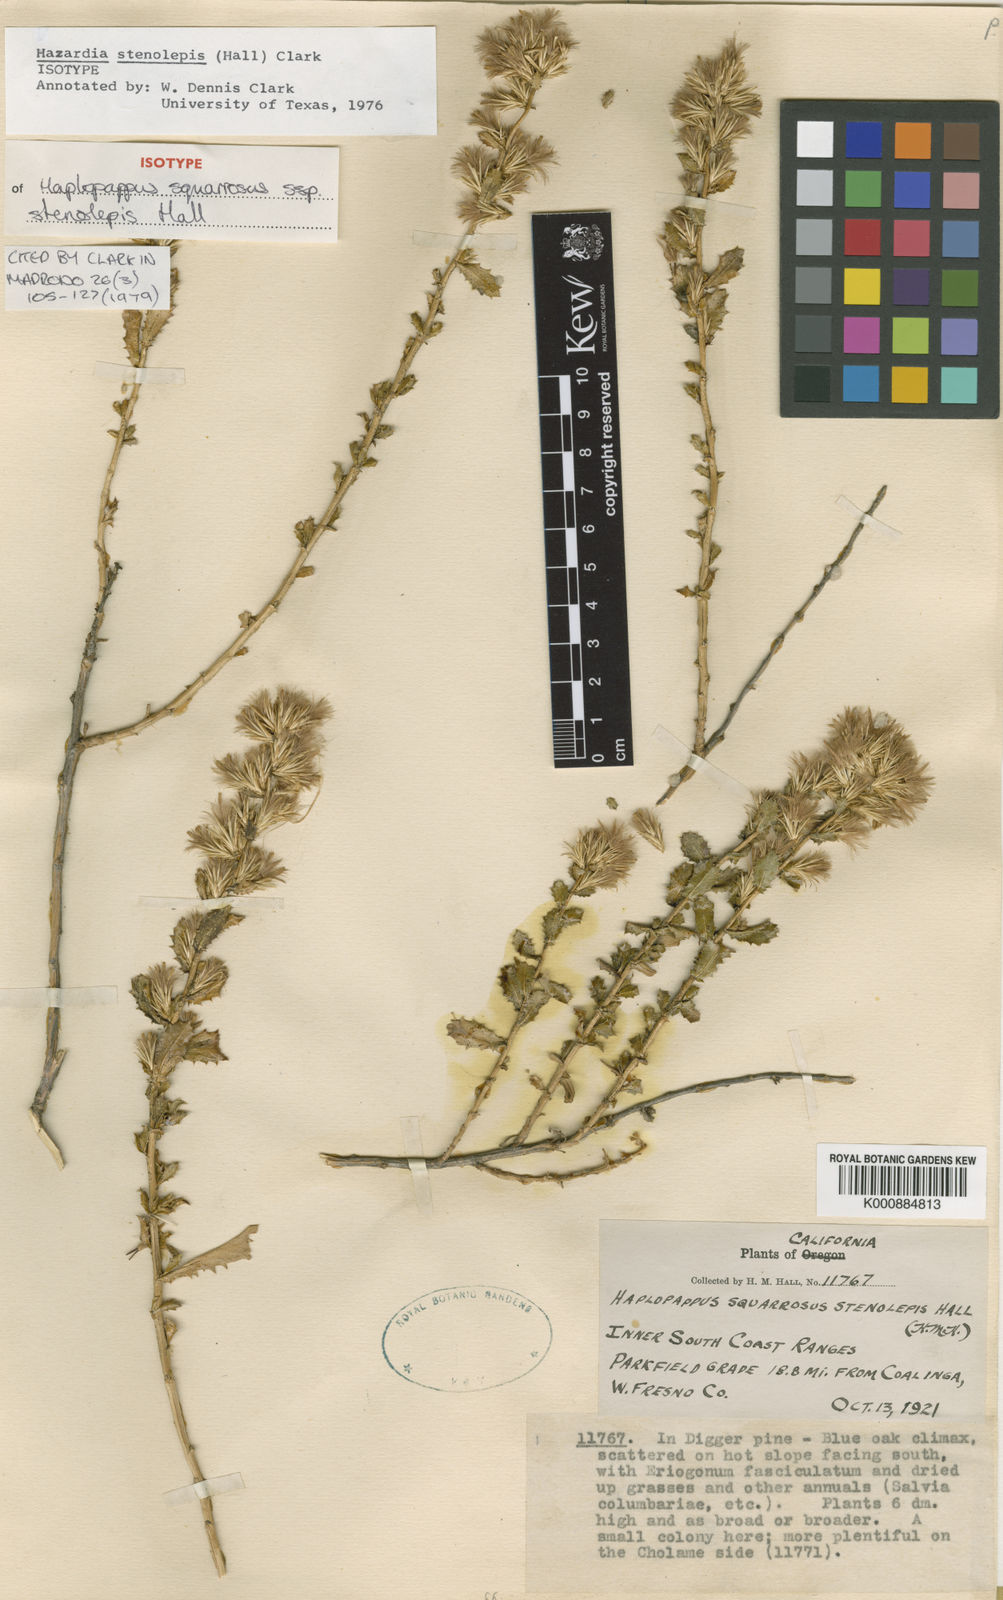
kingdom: Plantae
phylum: Tracheophyta
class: Magnoliopsida
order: Asterales
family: Asteraceae
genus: Hazardia
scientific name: Hazardia stenolepis
